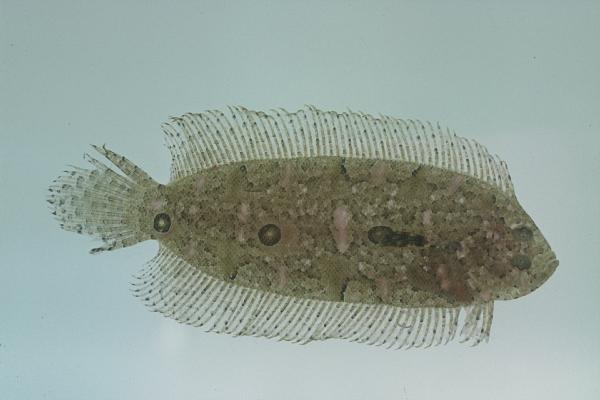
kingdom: Animalia
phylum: Chordata
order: Pleuronectiformes
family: Samaridae
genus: Samariscus
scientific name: Samariscus triocellatus
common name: Three-spot righteye flounder
